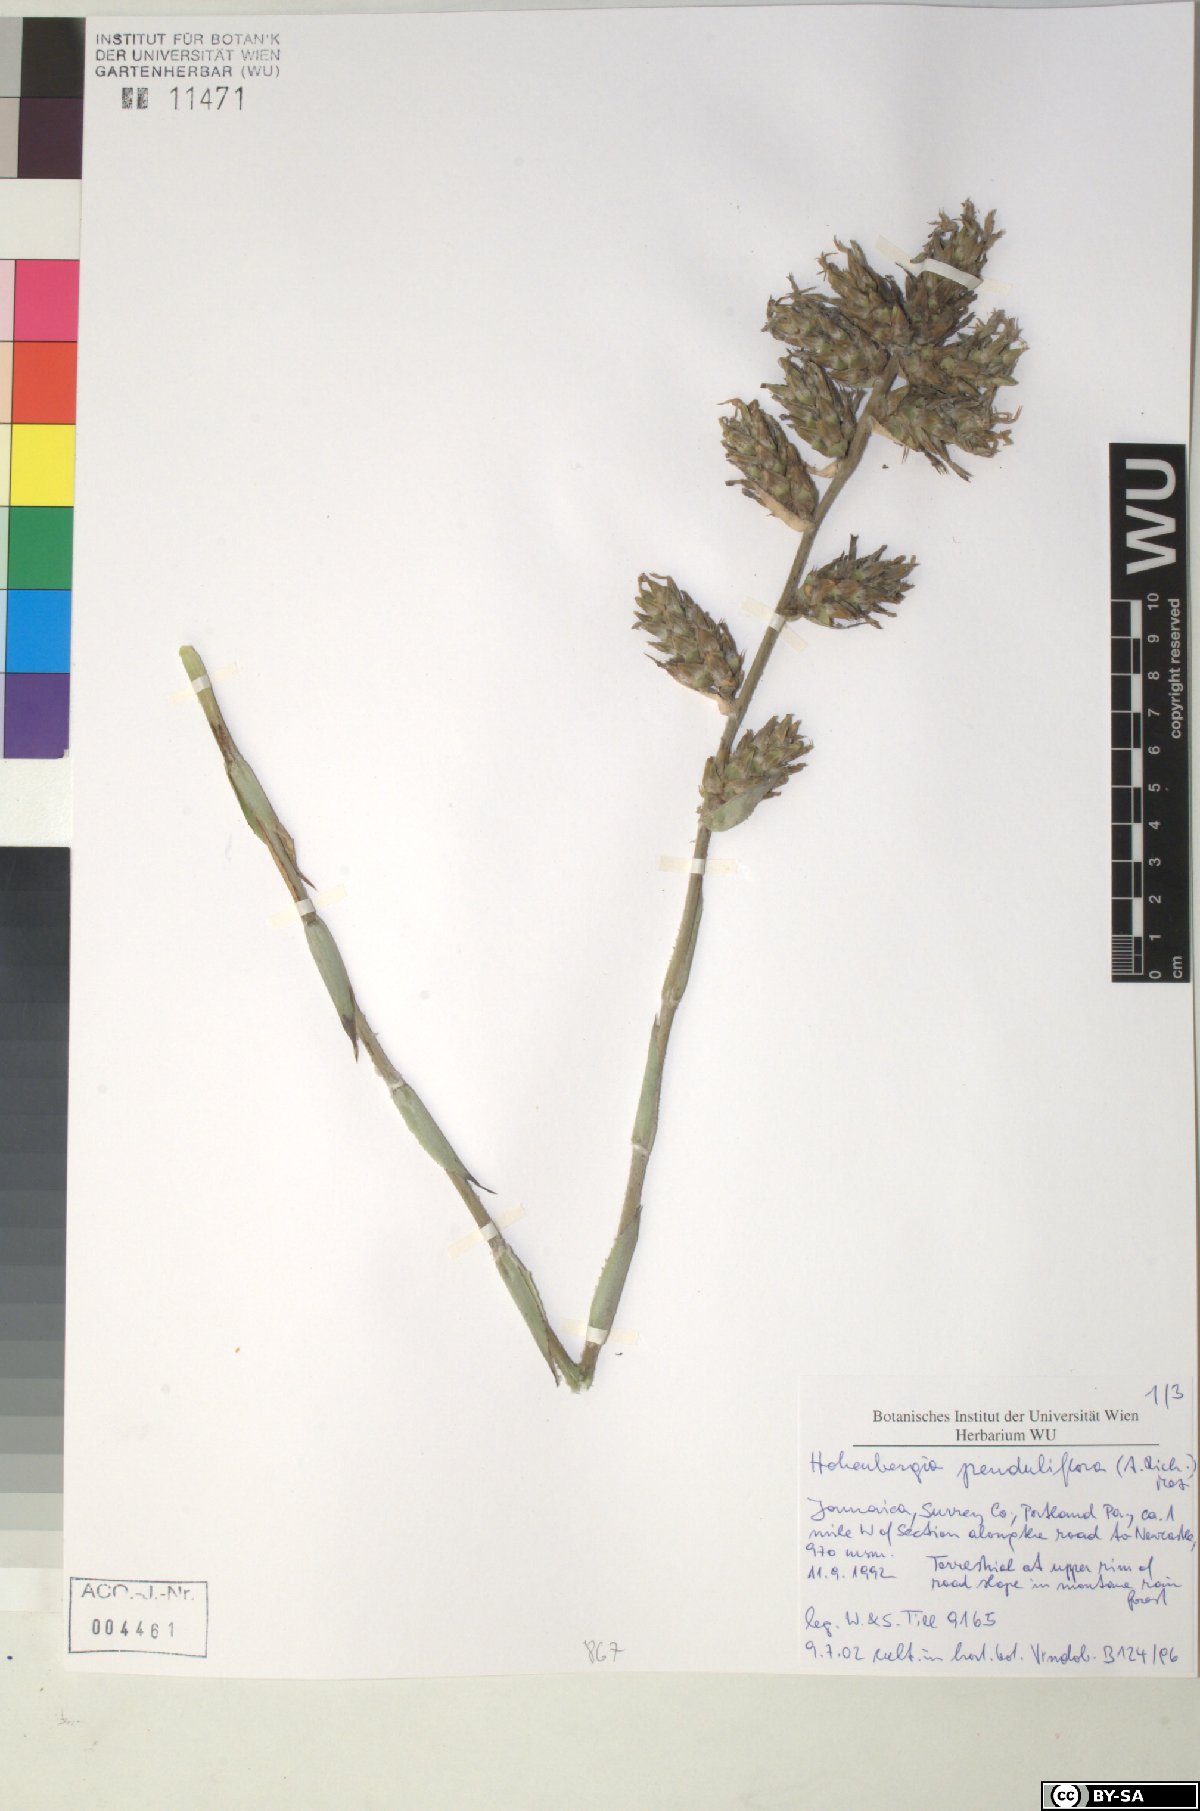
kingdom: Plantae
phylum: Tracheophyta
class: Liliopsida
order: Poales
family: Bromeliaceae
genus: Wittmackia
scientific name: Wittmackia penduliflora
